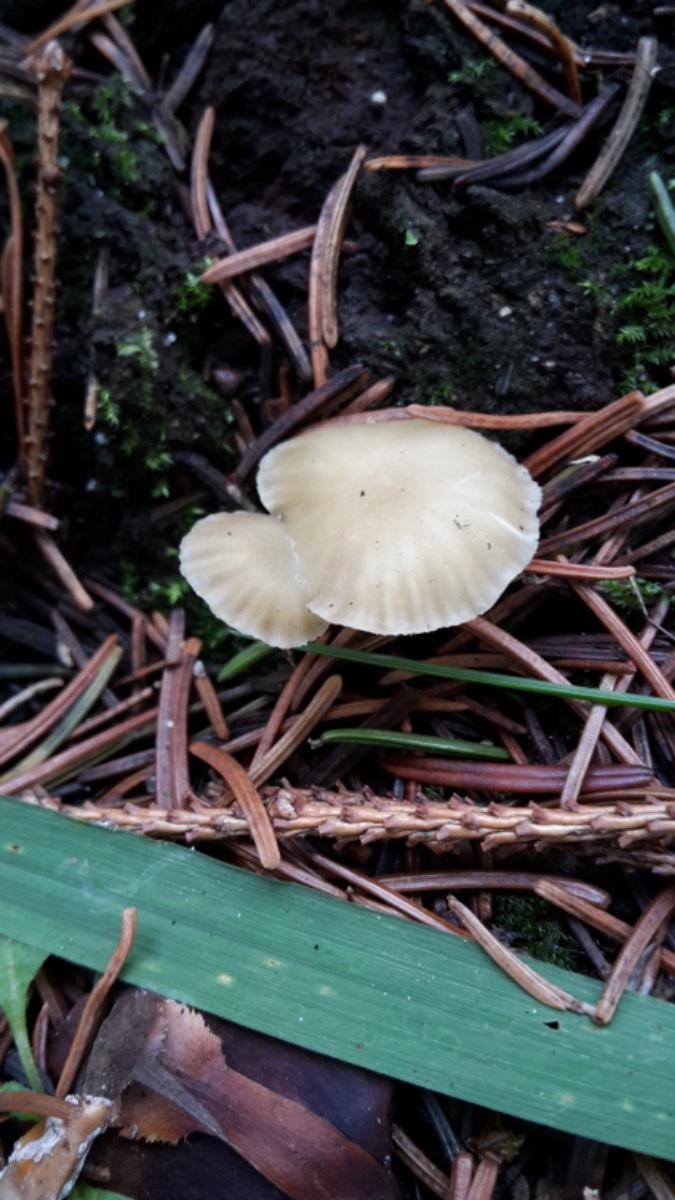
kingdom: Fungi
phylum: Basidiomycota
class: Agaricomycetes
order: Agaricales
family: Hygrophoraceae
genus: Chrysomphalina
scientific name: Chrysomphalina grossula
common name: stød-gyldenblad
